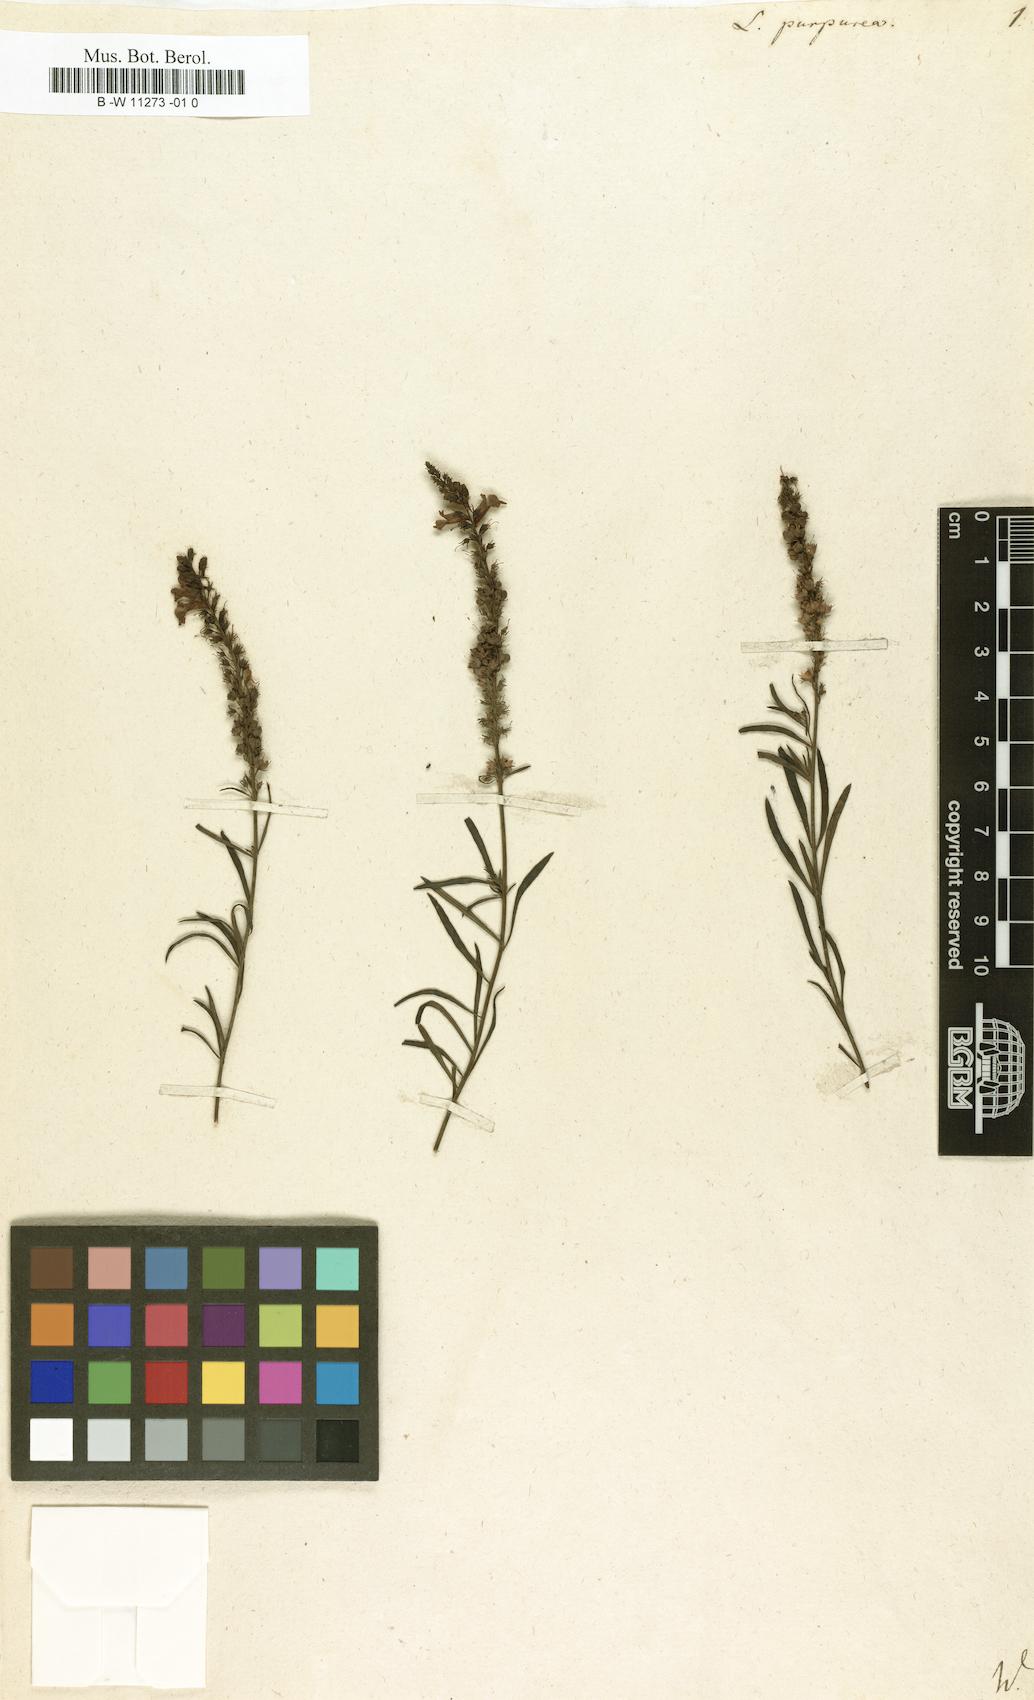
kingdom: Plantae
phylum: Tracheophyta
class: Magnoliopsida
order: Lamiales
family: Plantaginaceae
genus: Linaria
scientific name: Linaria purpurea
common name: Purple toadflax
